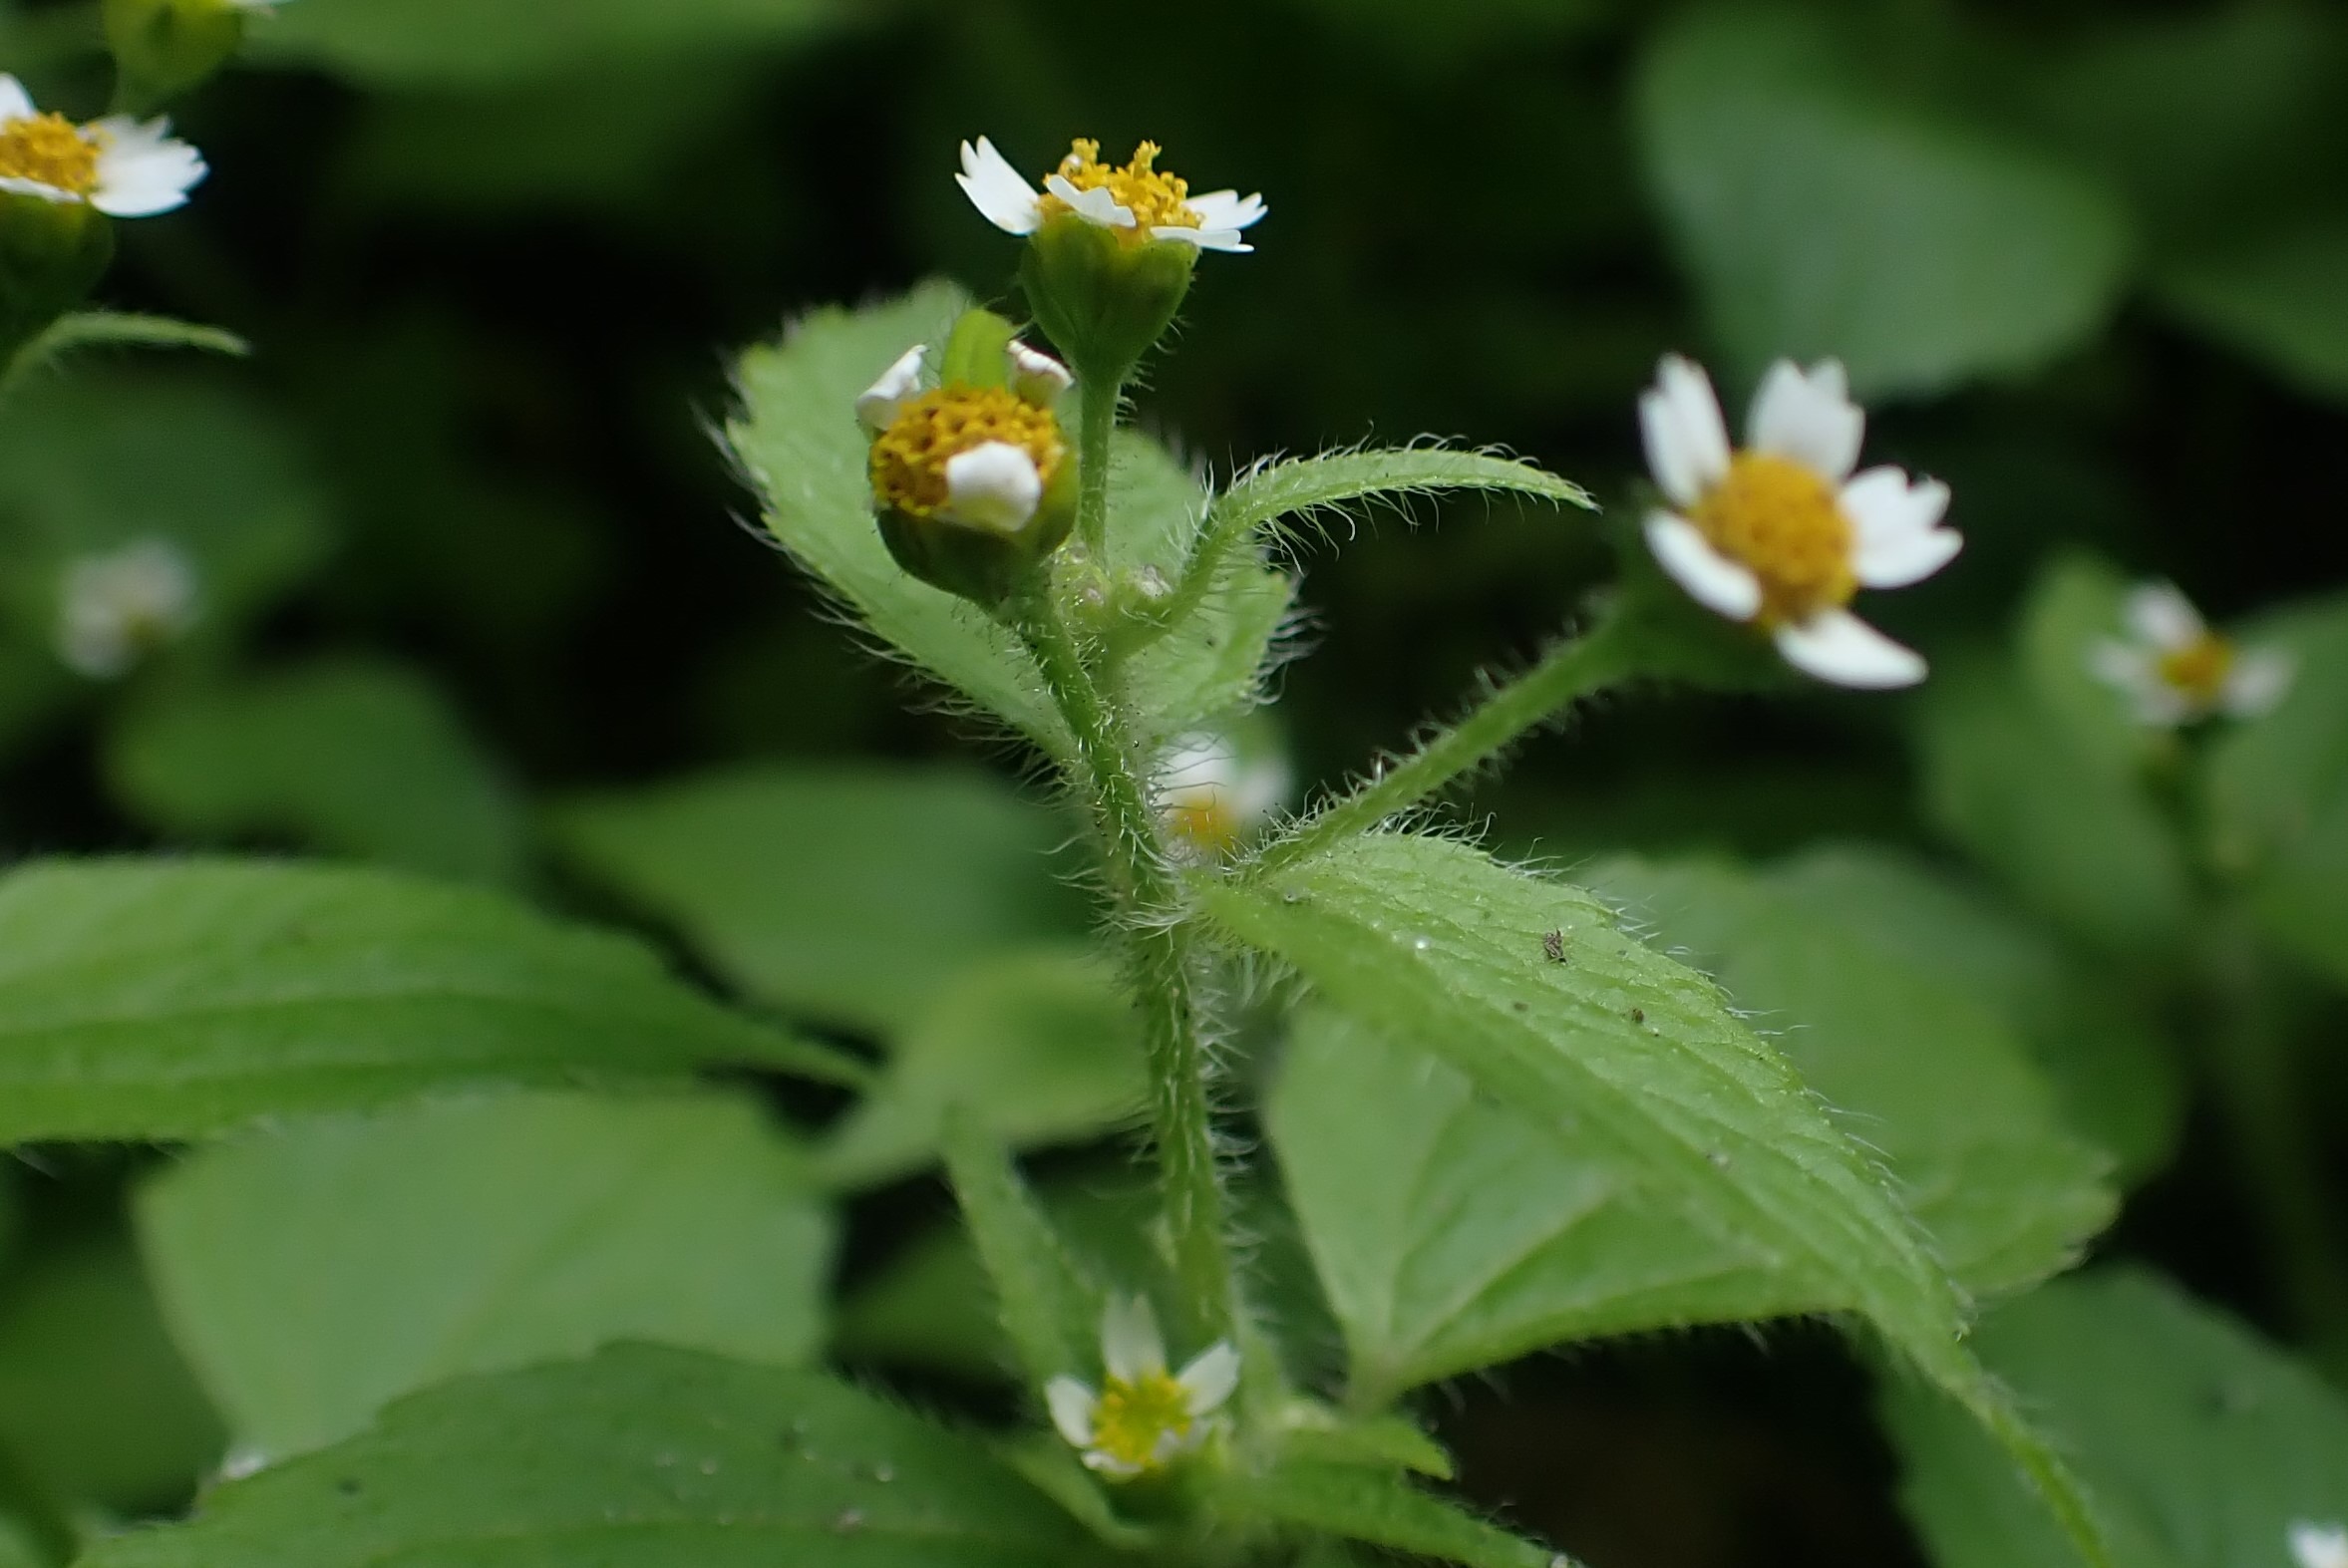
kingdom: Plantae
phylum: Tracheophyta
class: Magnoliopsida
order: Asterales
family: Asteraceae
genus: Galinsoga
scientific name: Galinsoga quadriradiata
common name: Kirtel-kortstråle
